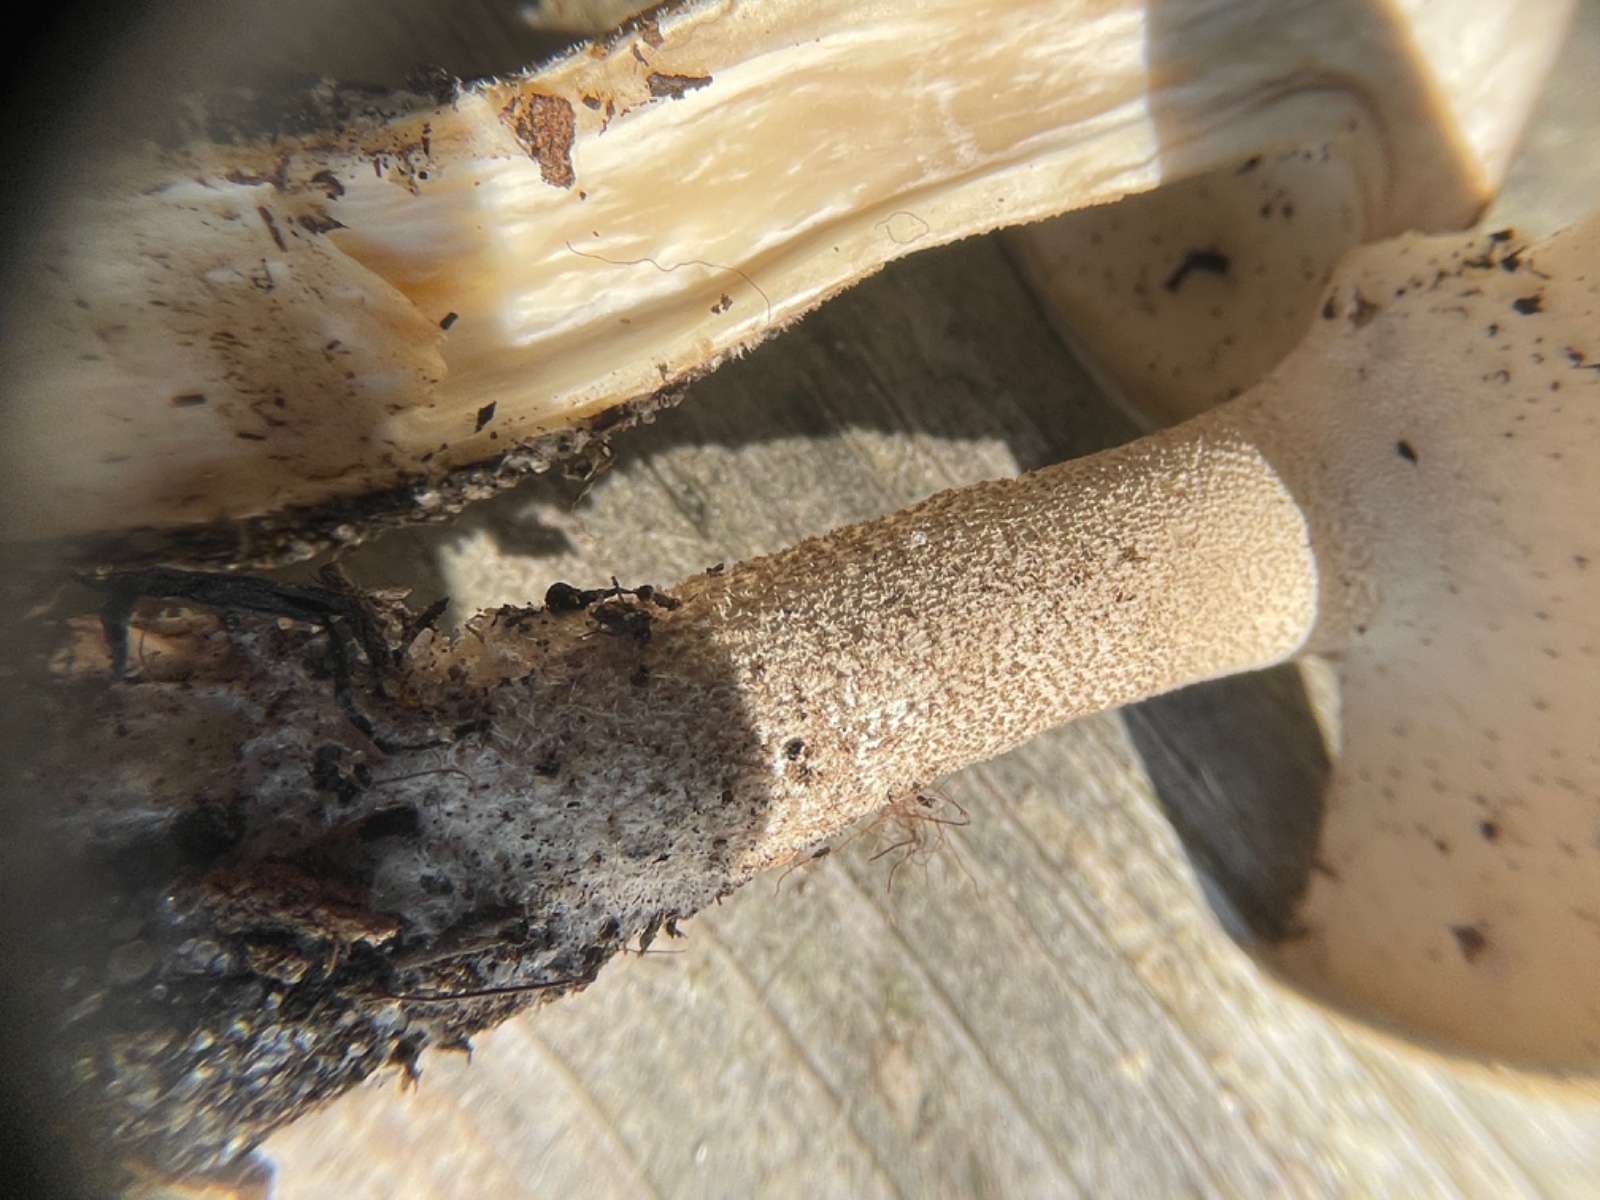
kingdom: Fungi
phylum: Basidiomycota
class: Agaricomycetes
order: Polyporales
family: Polyporaceae
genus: Lentinus
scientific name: Lentinus substrictus
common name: forårs-stilkporesvamp
